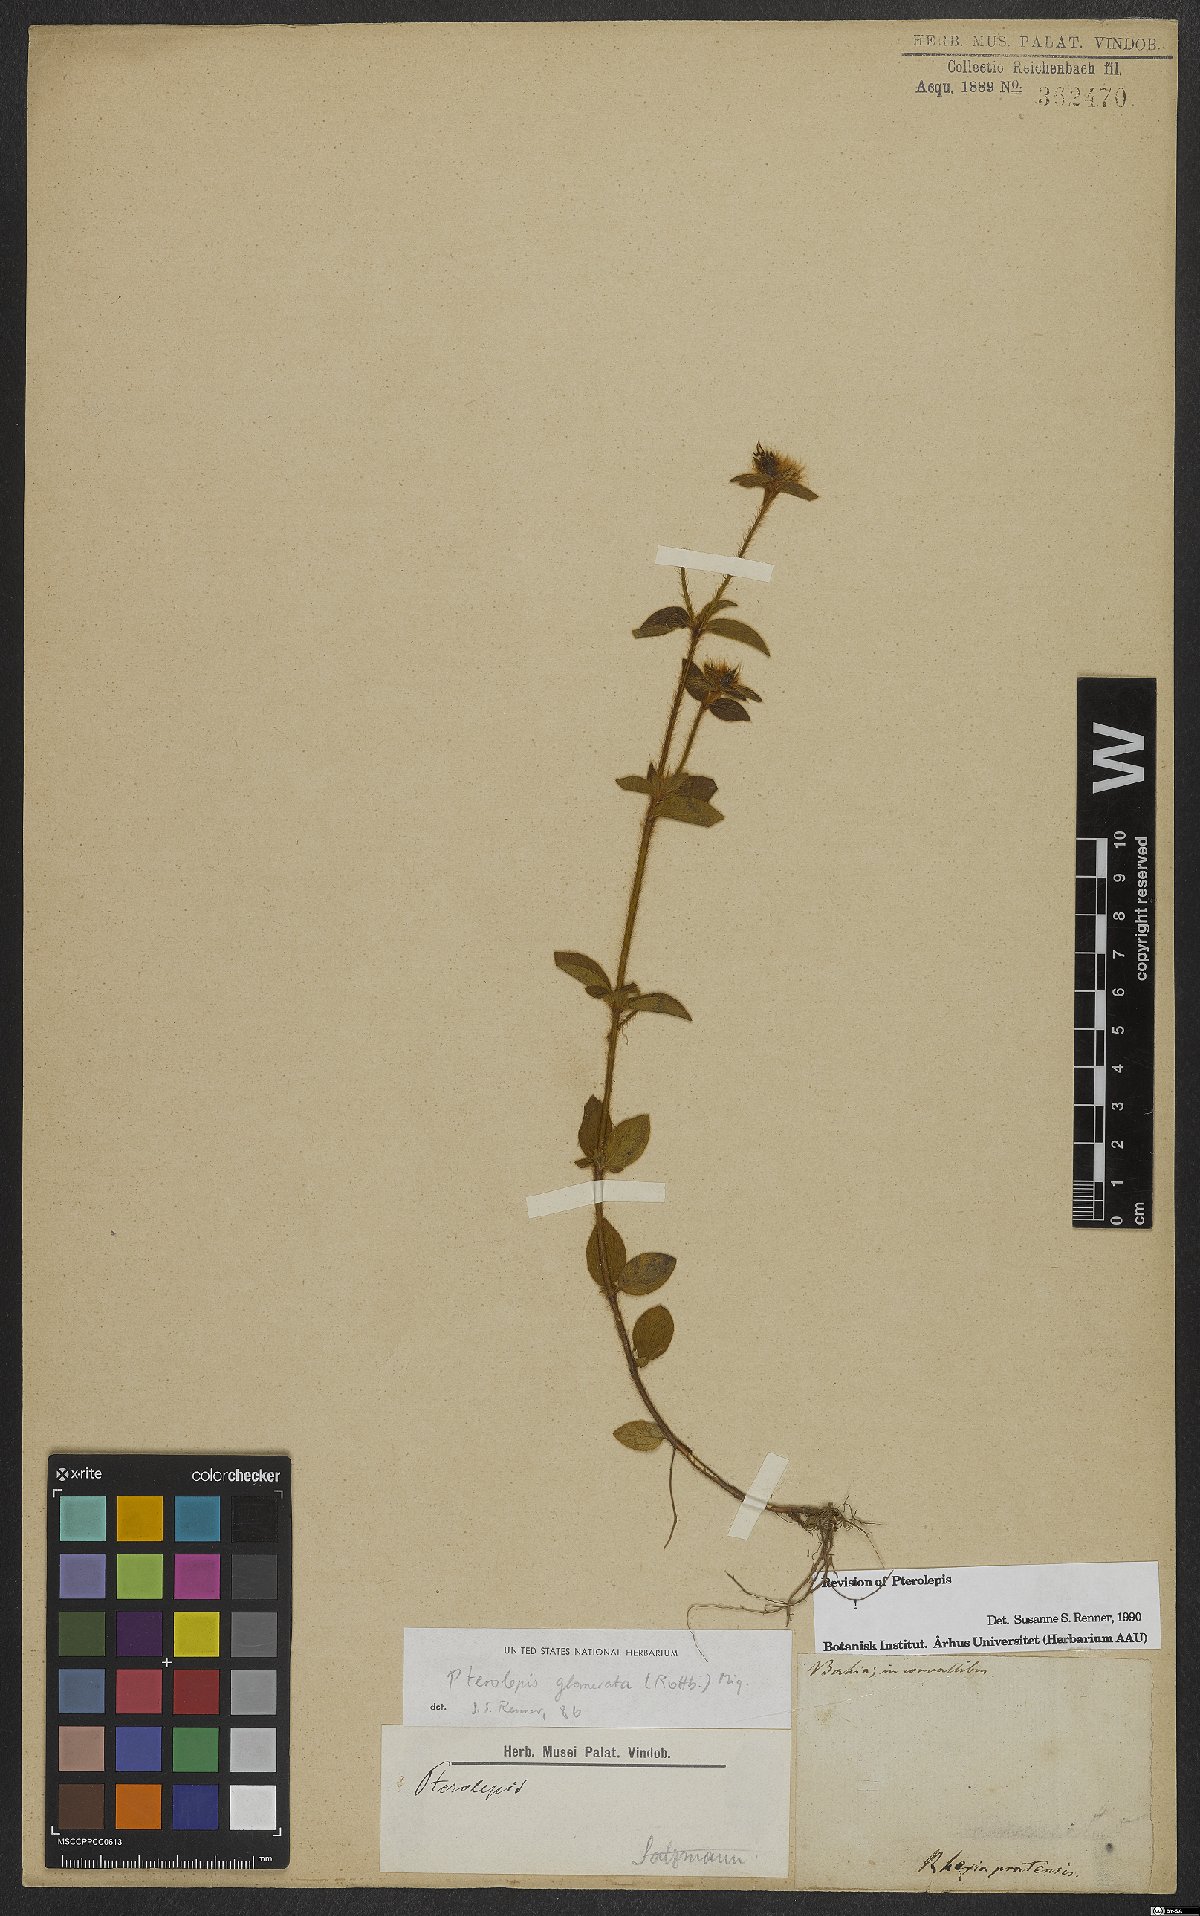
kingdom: Plantae
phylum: Tracheophyta
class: Magnoliopsida
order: Myrtales
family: Melastomataceae
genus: Pterolepis
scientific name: Pterolepis glomerata
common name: False meadowbeauty
